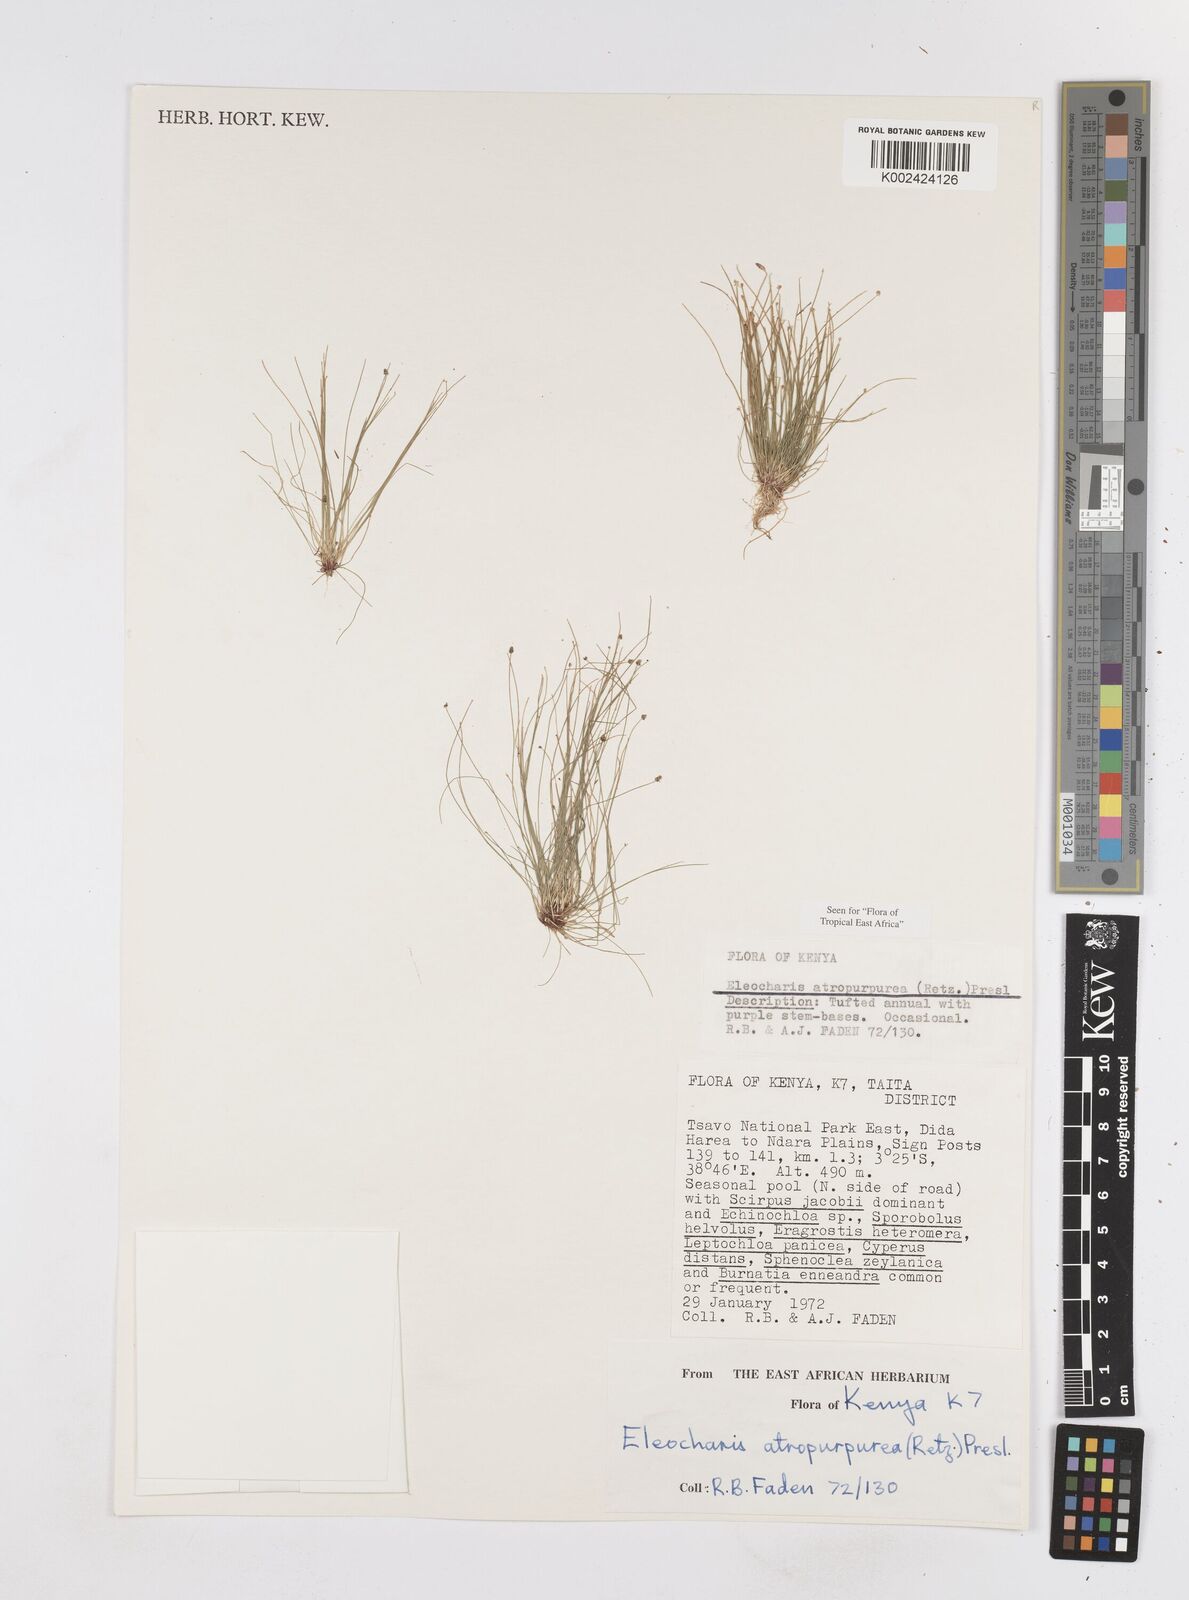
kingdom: Plantae
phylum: Tracheophyta
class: Liliopsida
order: Poales
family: Cyperaceae
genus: Eleocharis
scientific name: Eleocharis atropurpurea
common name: Purple spikerush
